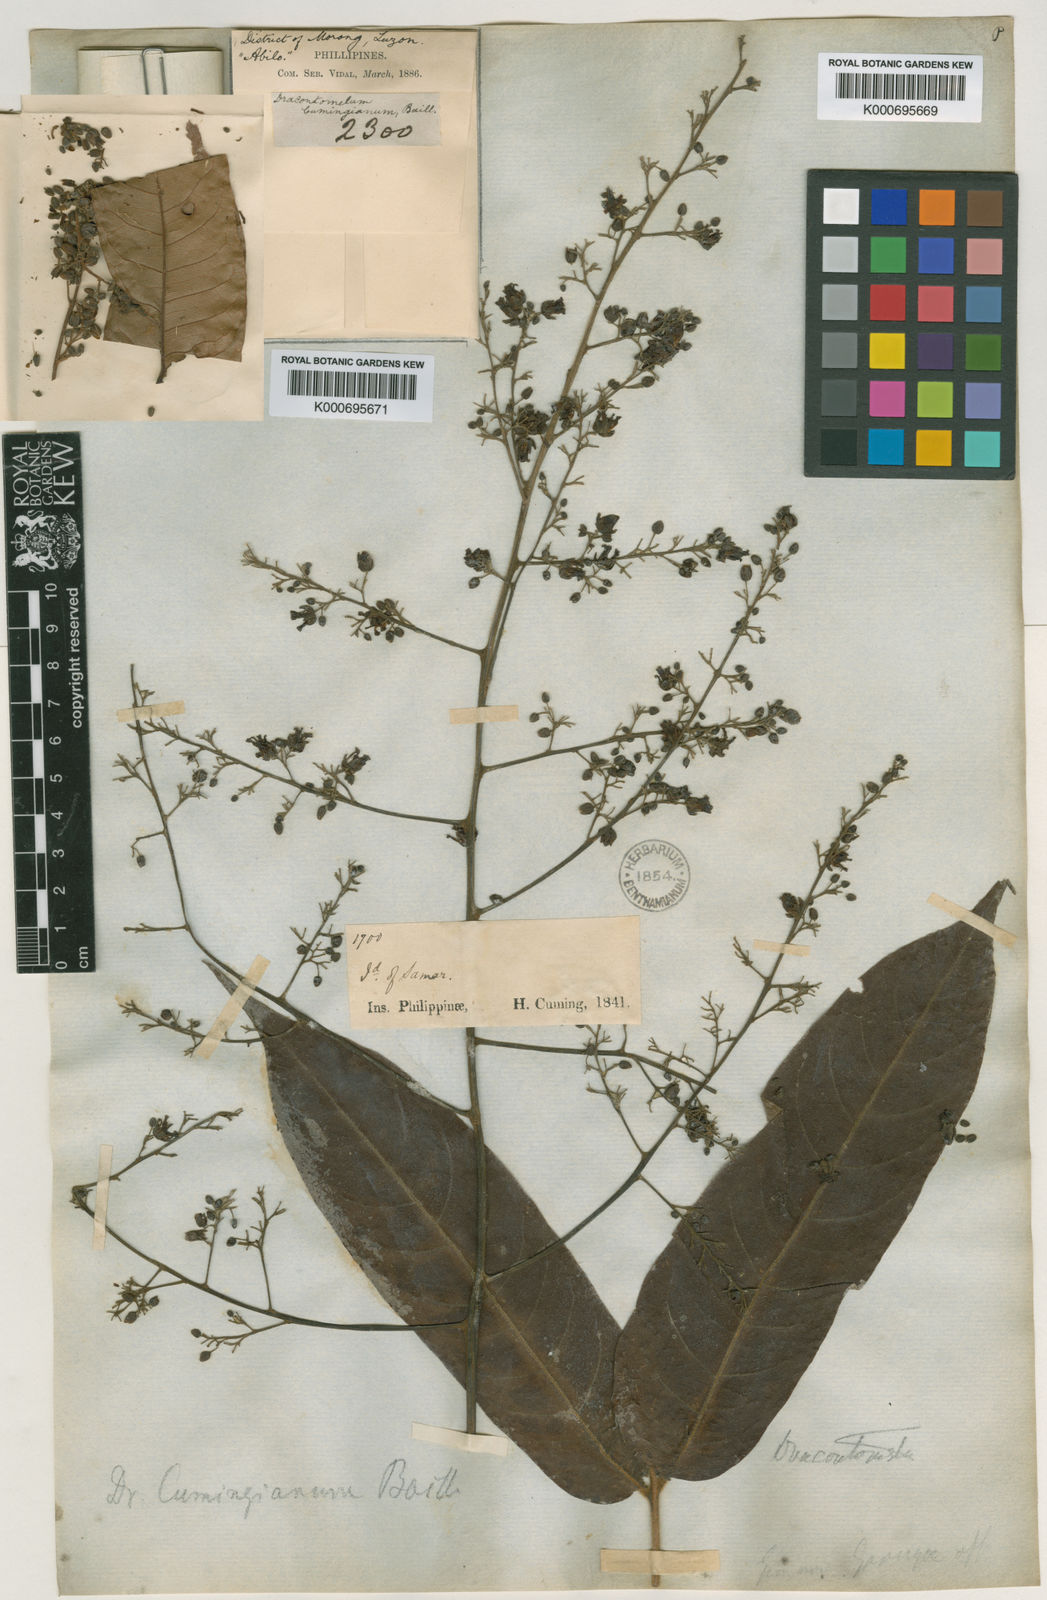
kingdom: Plantae
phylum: Tracheophyta
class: Magnoliopsida
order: Sapindales
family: Anacardiaceae
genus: Dracontomelon
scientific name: Dracontomelon dao
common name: Argus pheasant-tree
